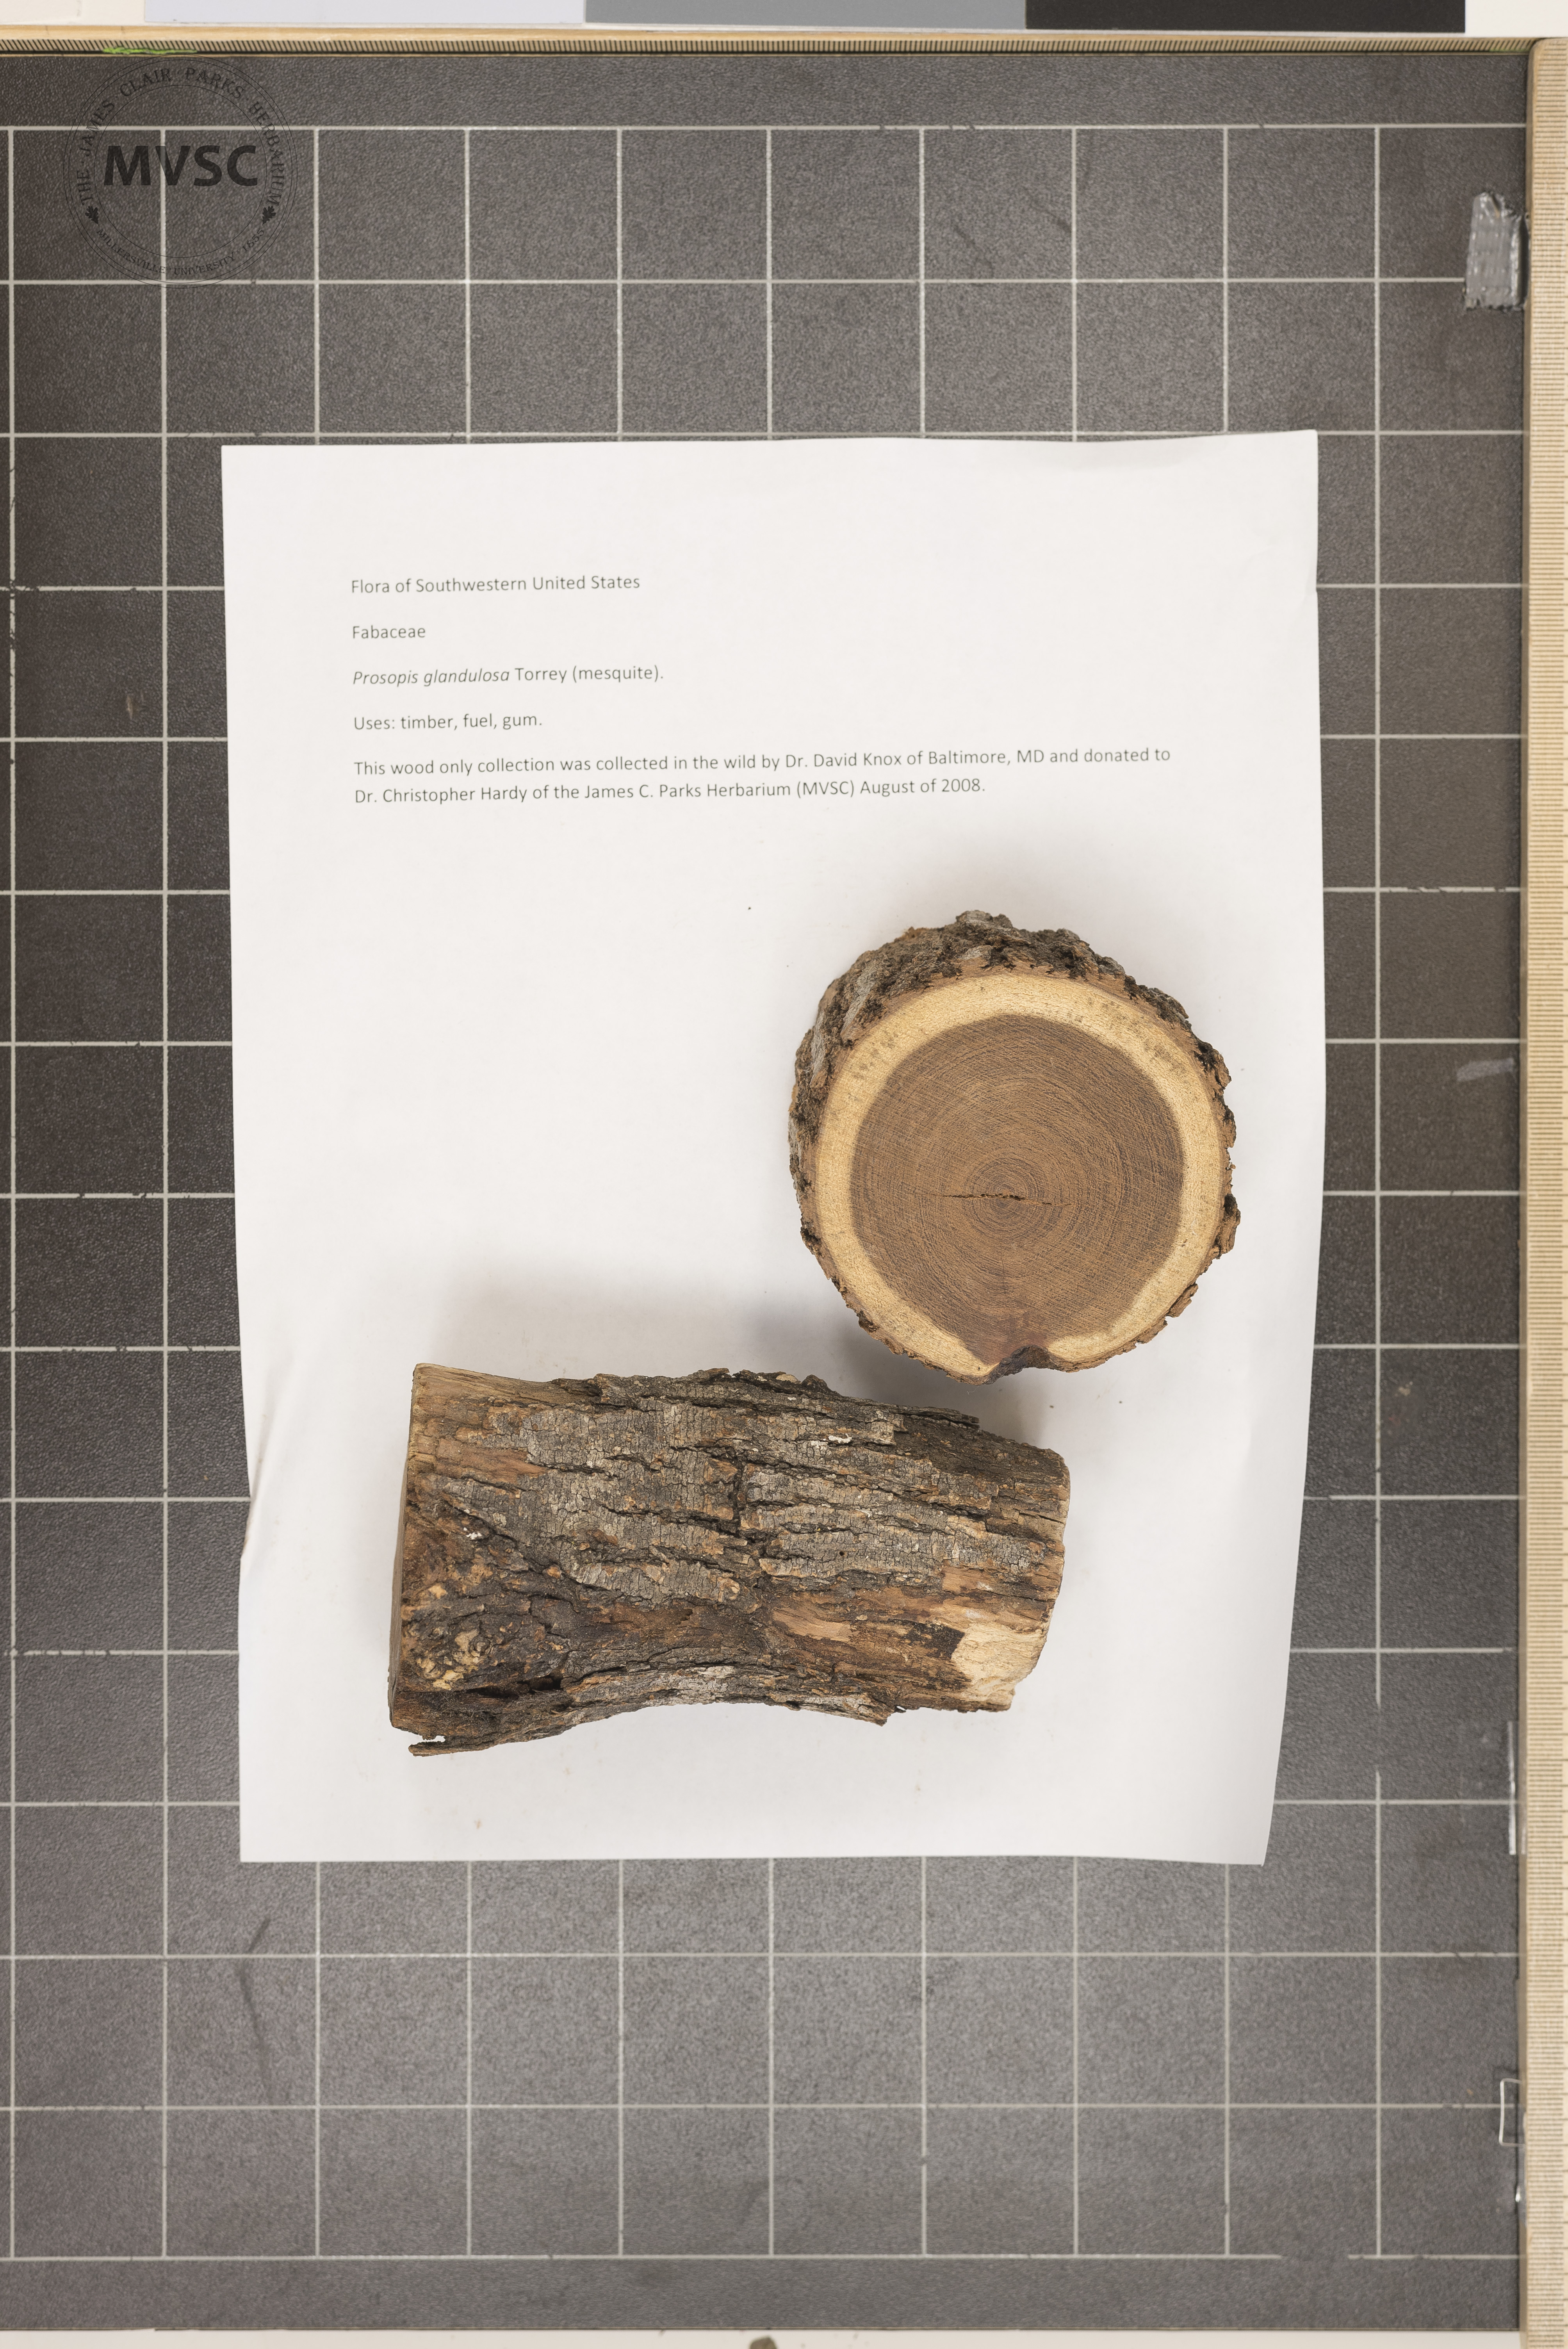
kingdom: Plantae
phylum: Tracheophyta
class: Magnoliopsida
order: Fabales
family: Fabaceae
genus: Prosopis
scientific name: Prosopis glandulosa
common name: Mesquite
